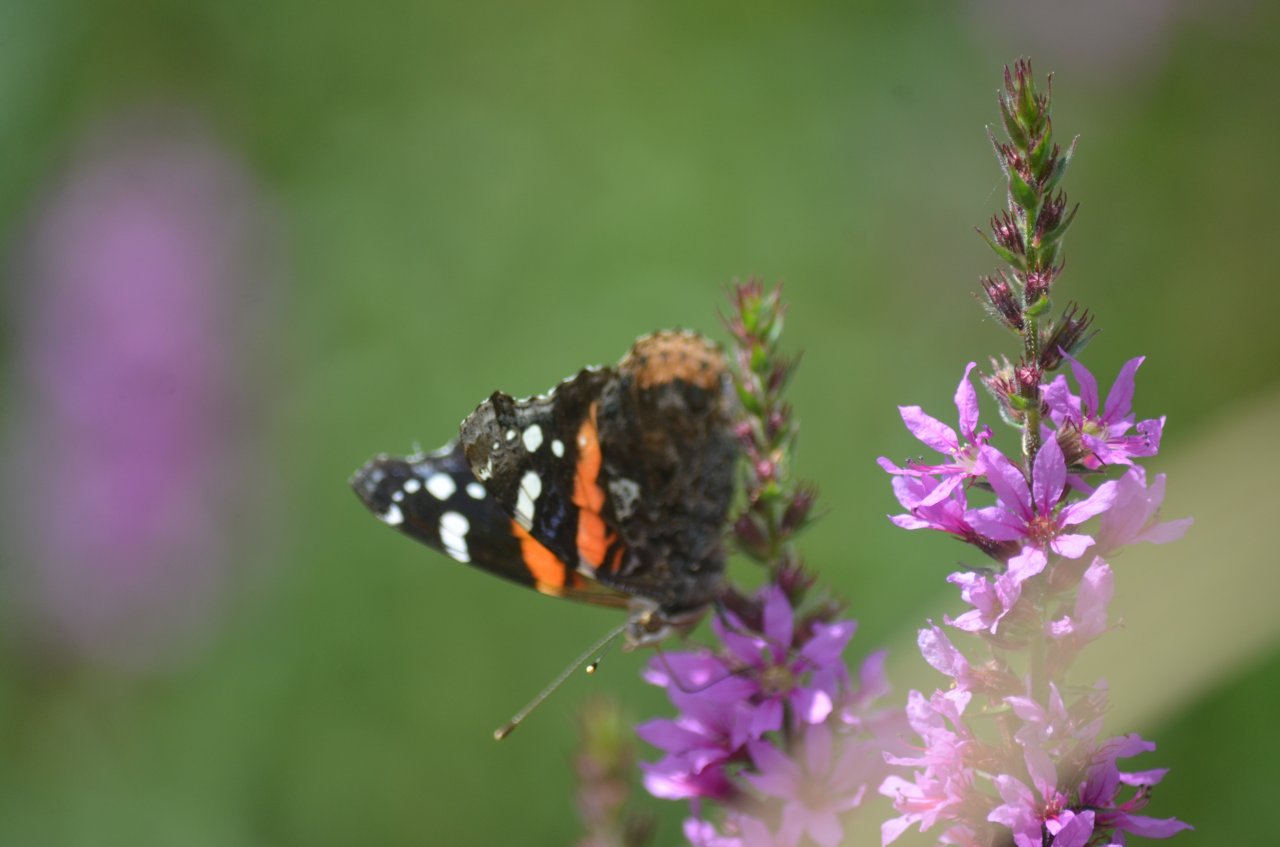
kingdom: Animalia
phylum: Arthropoda
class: Insecta
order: Lepidoptera
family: Nymphalidae
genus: Vanessa
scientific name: Vanessa atalanta
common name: Red Admiral
